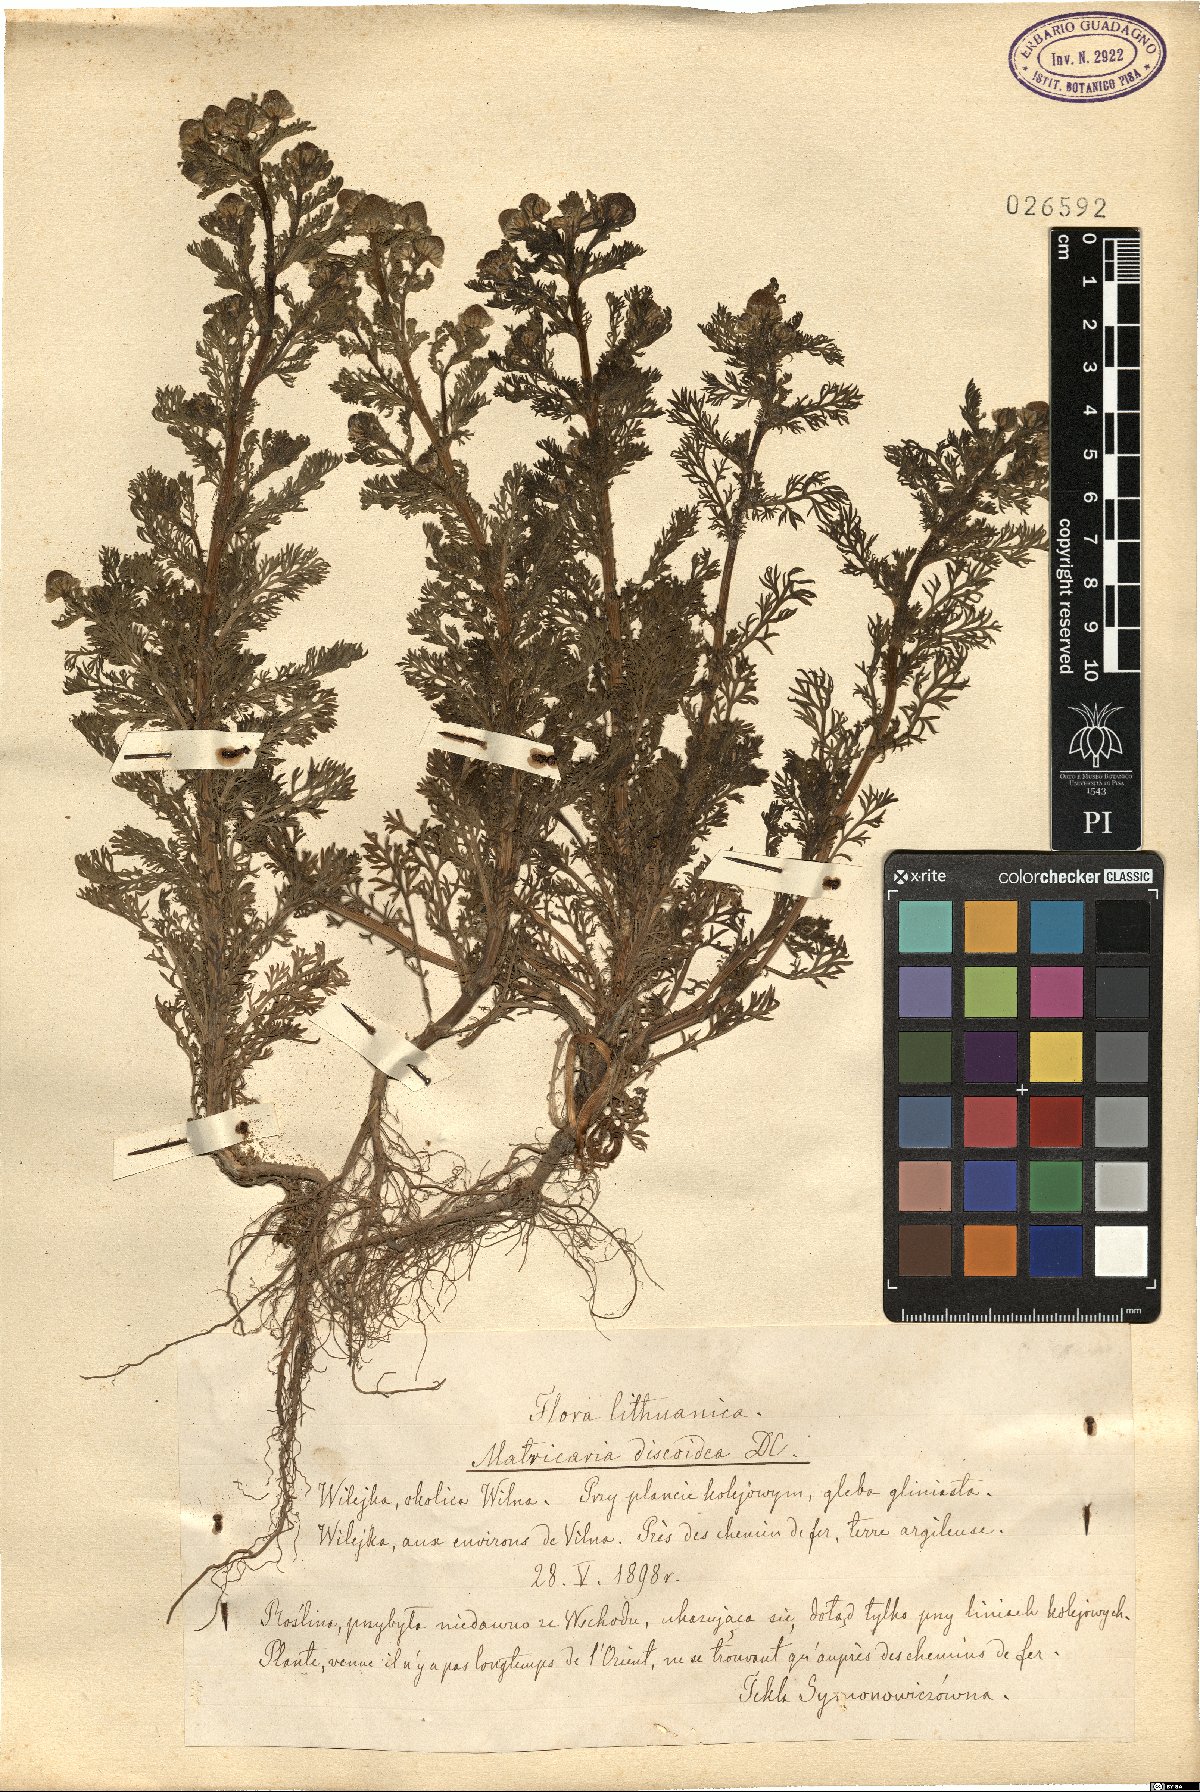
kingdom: Plantae
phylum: Tracheophyta
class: Magnoliopsida
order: Asterales
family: Asteraceae
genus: Matricaria
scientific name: Matricaria discoidea
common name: Disc mayweed
